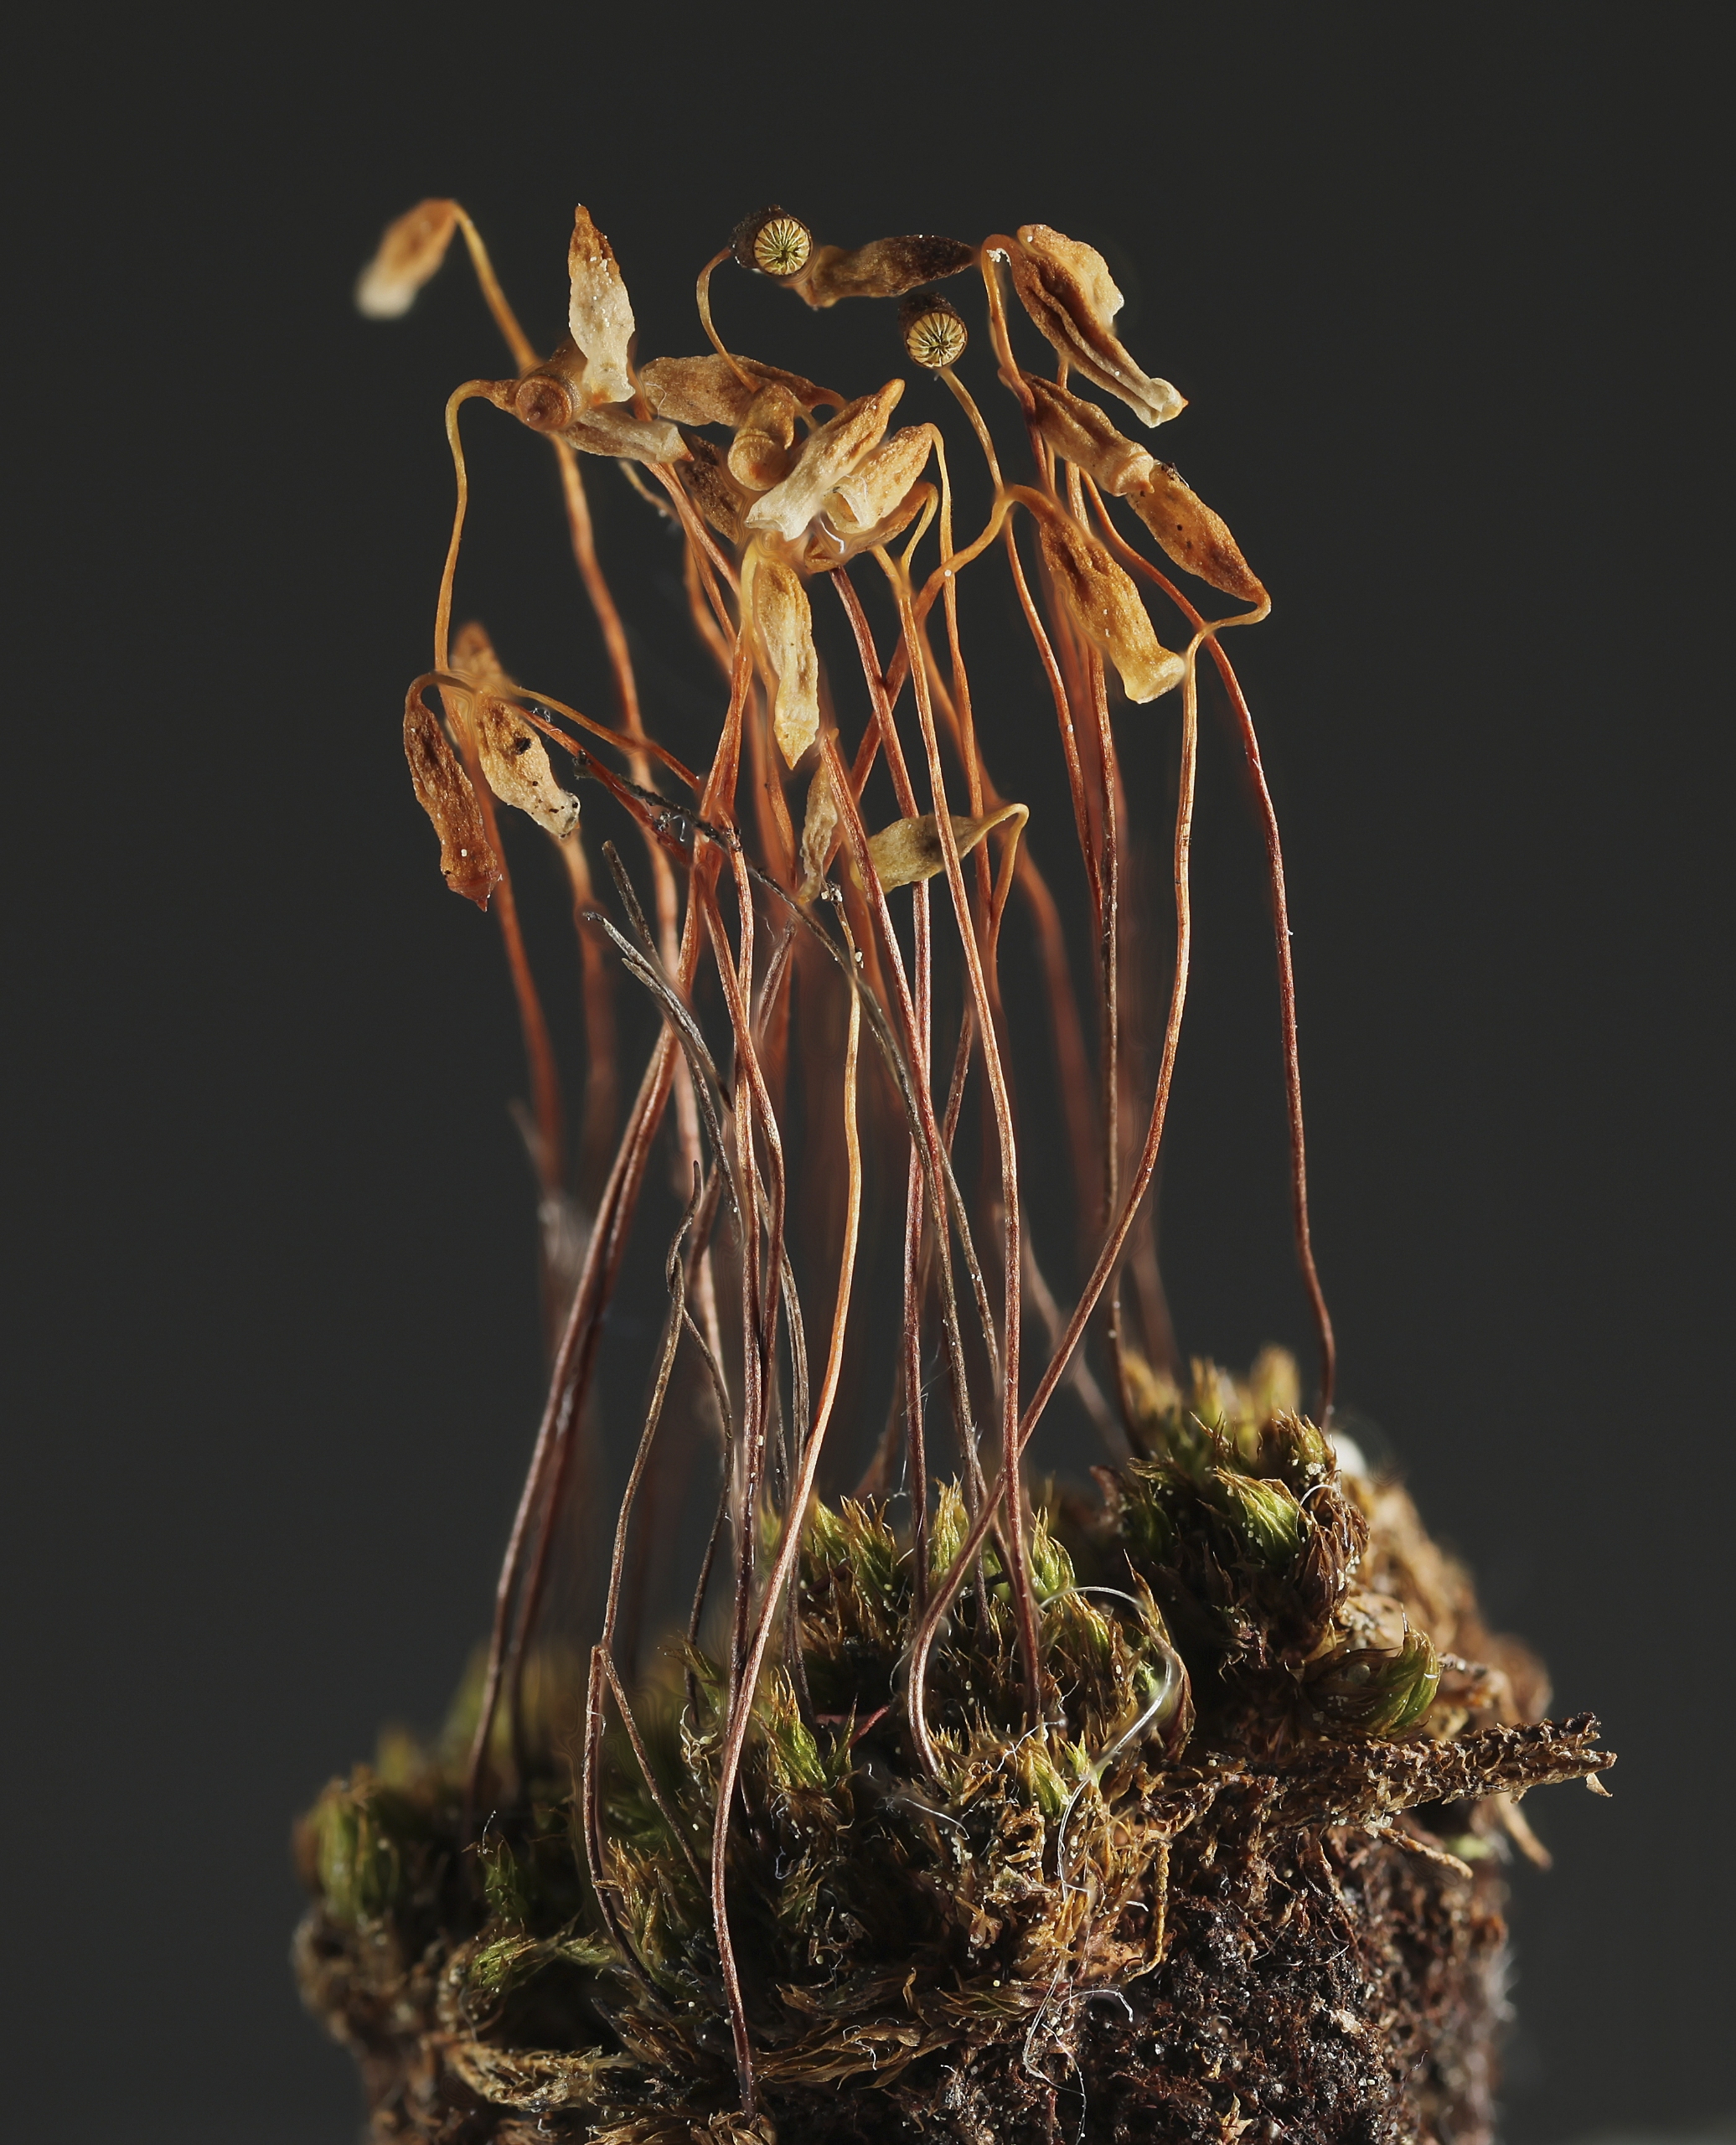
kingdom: Plantae
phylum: Bryophyta
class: Bryopsida
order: Bryales
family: Bryaceae
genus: Gemmabryum
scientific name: Gemmabryum radiculosum
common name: Gulribbet bryum
